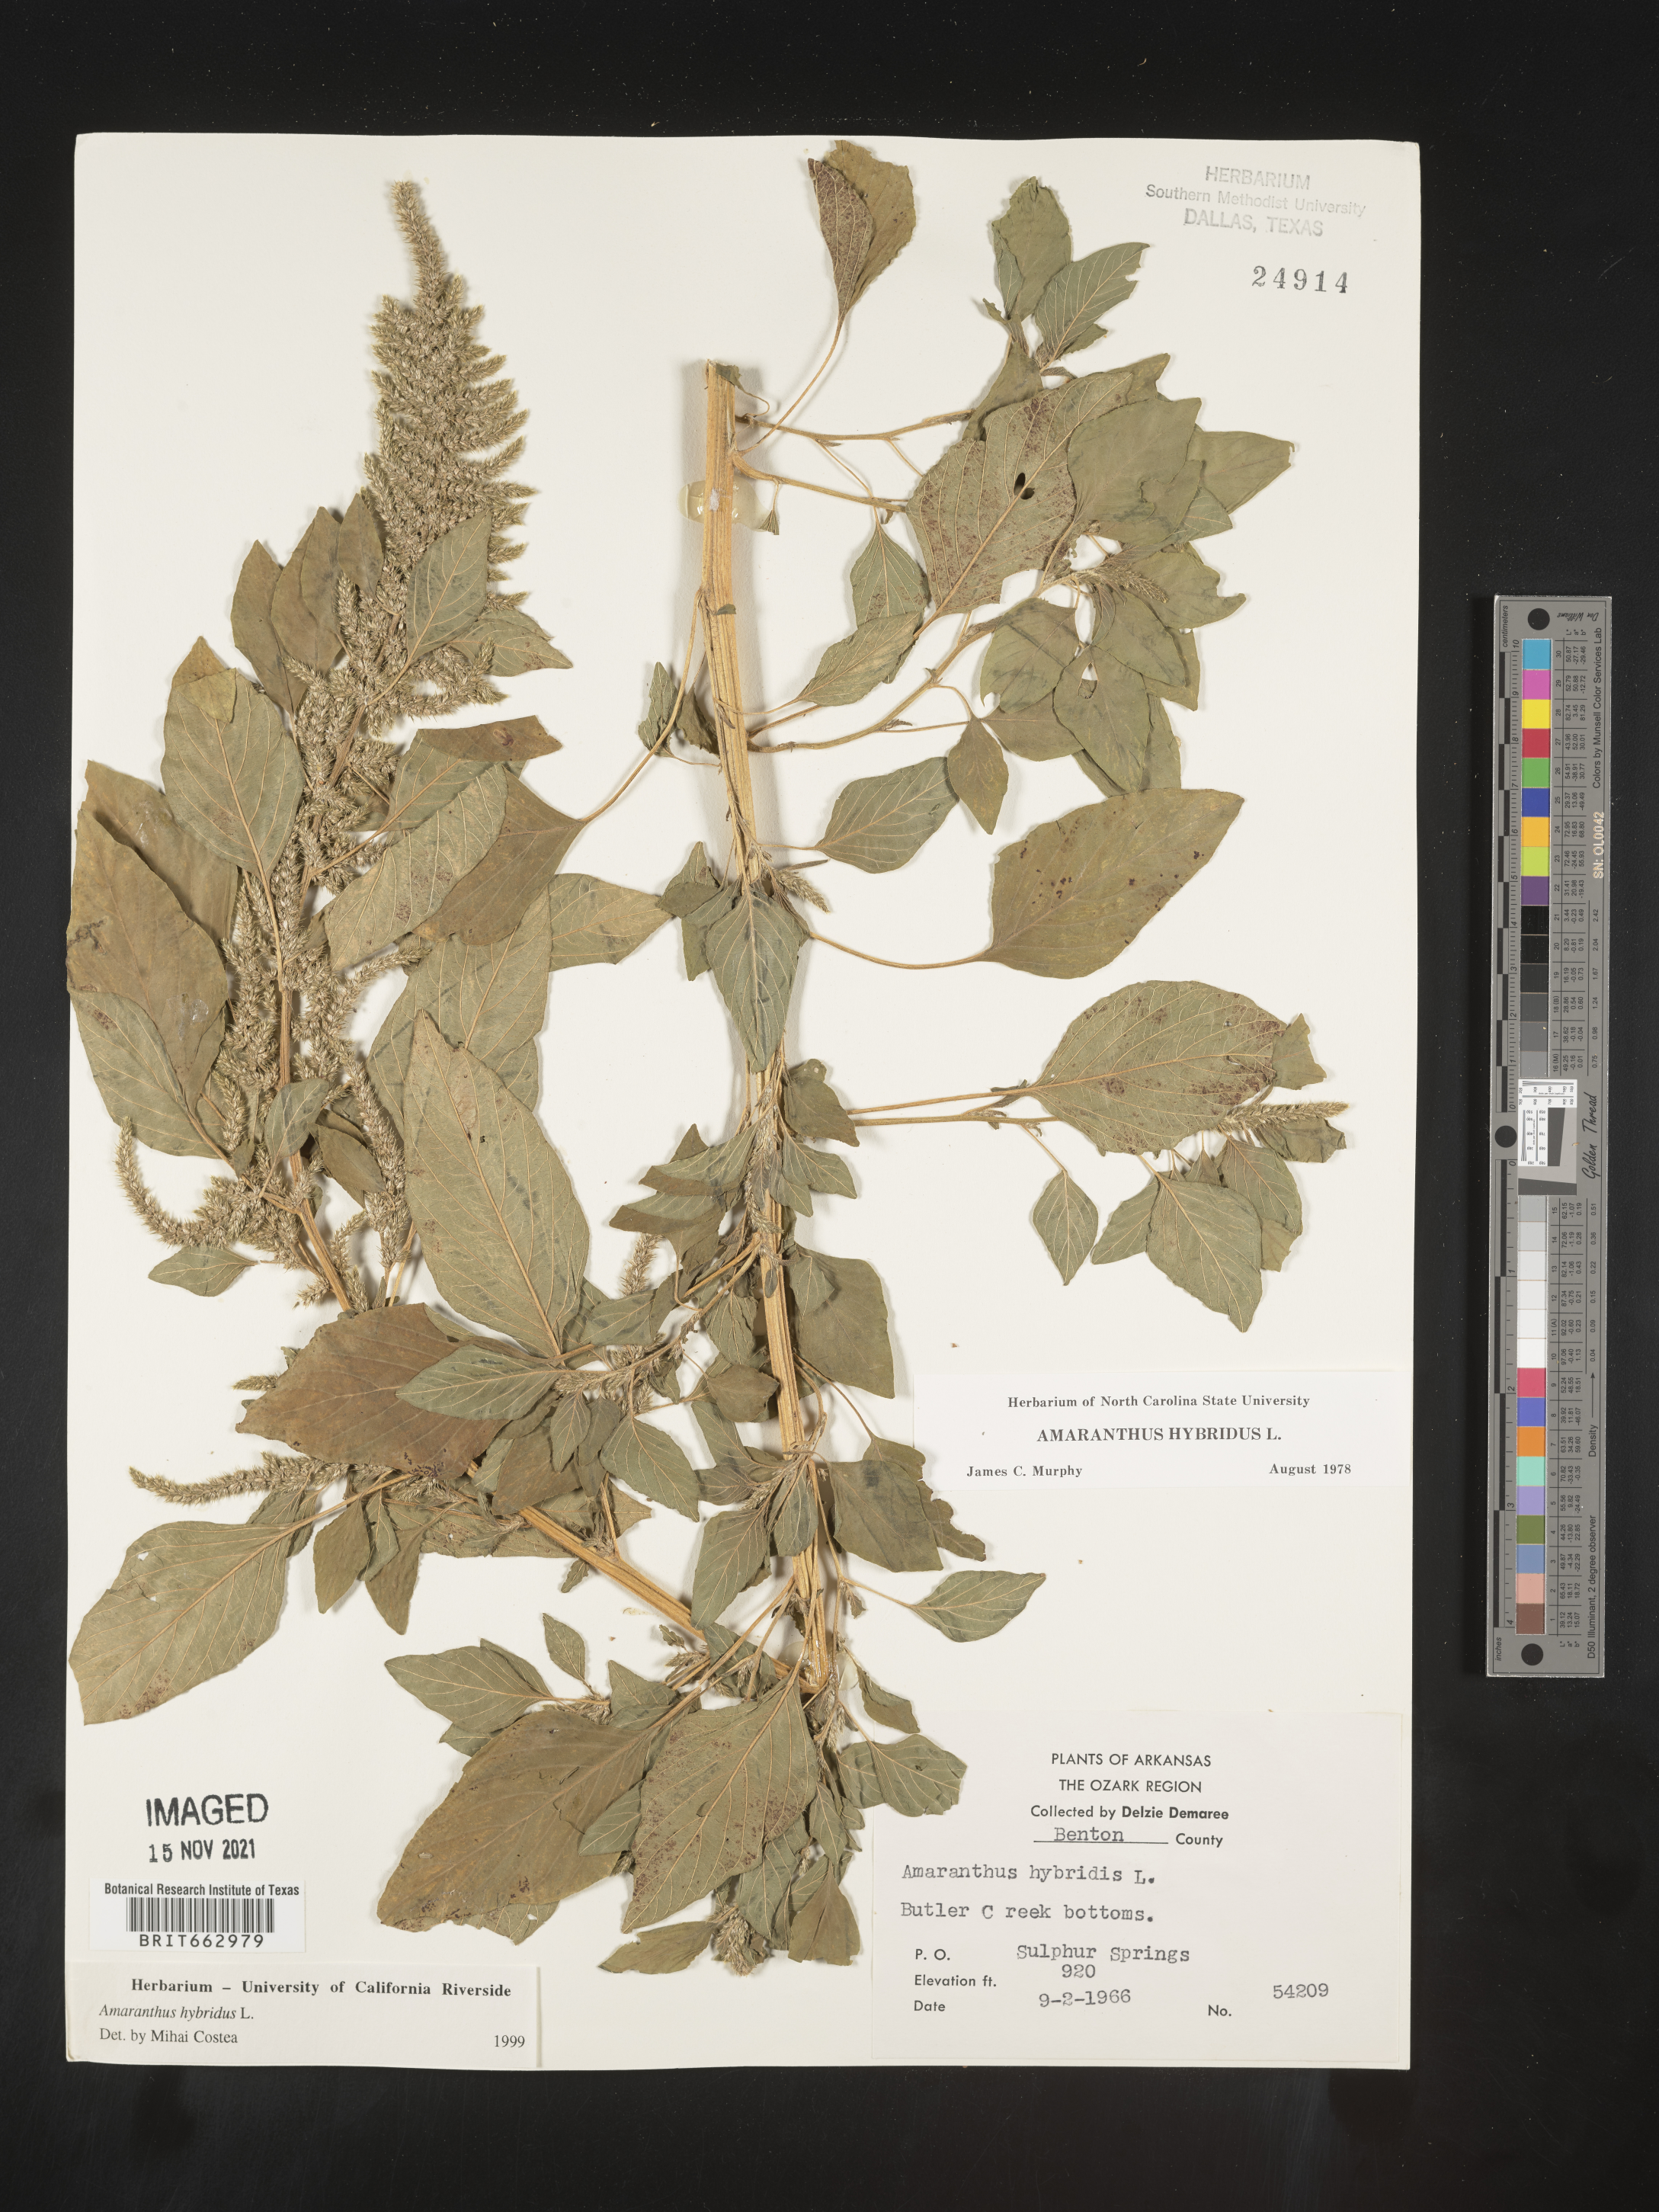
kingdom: Plantae
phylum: Tracheophyta
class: Magnoliopsida
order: Caryophyllales
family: Amaranthaceae
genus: Amaranthus
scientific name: Amaranthus hybridus
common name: Green amaranth
